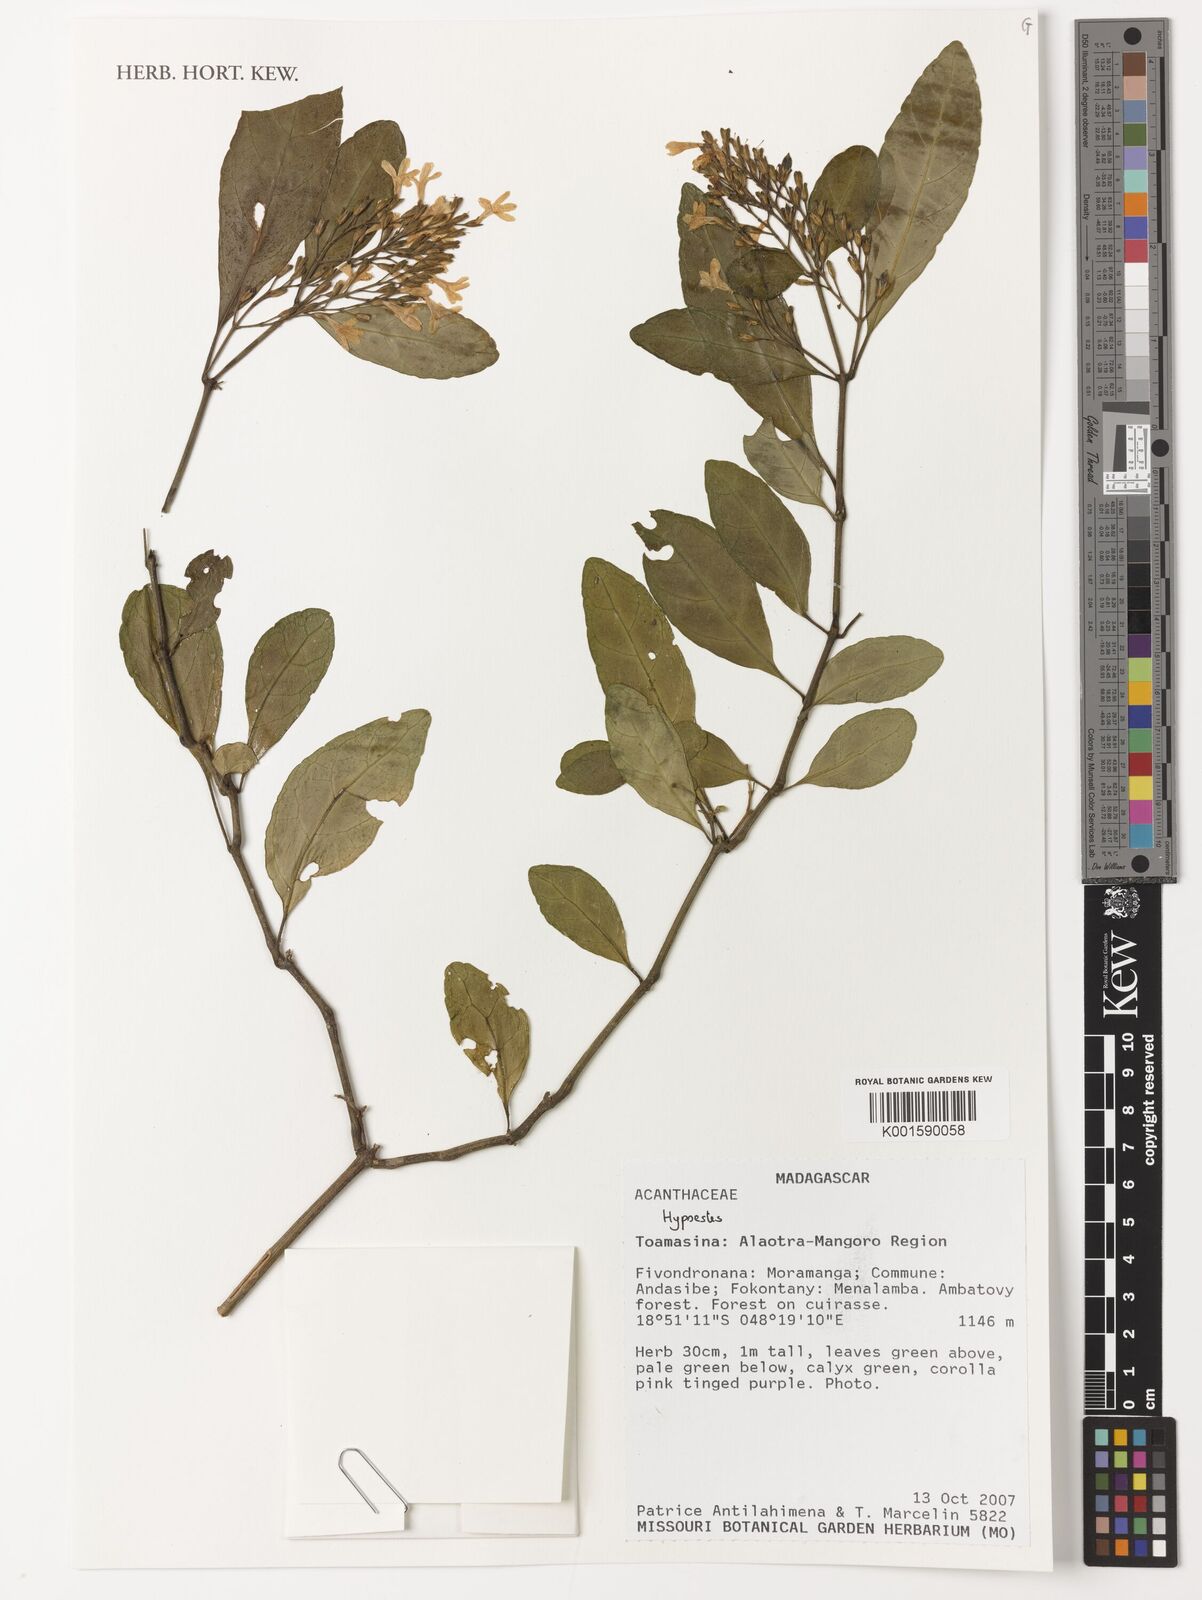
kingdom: Plantae
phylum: Tracheophyta
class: Magnoliopsida
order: Lamiales
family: Acanthaceae
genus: Hypoestes
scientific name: Hypoestes
